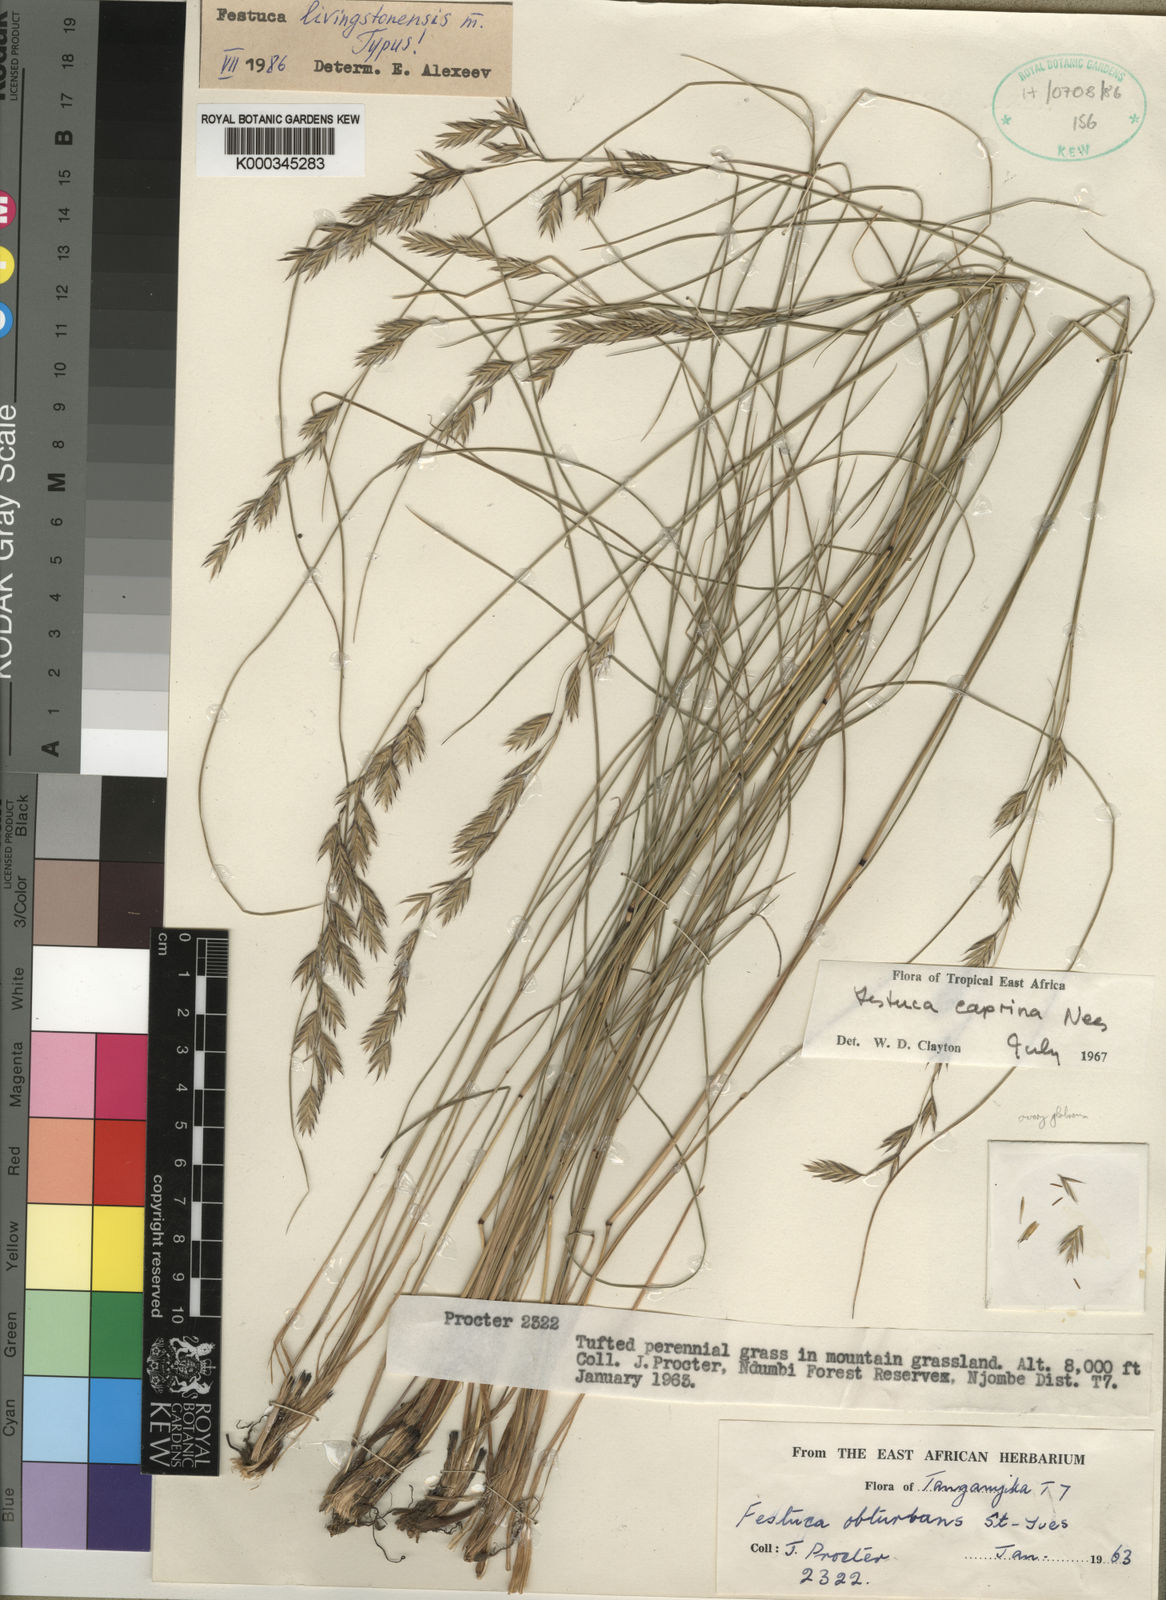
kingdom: Plantae
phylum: Tracheophyta
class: Liliopsida
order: Poales
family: Poaceae
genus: Festuca
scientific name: Festuca
